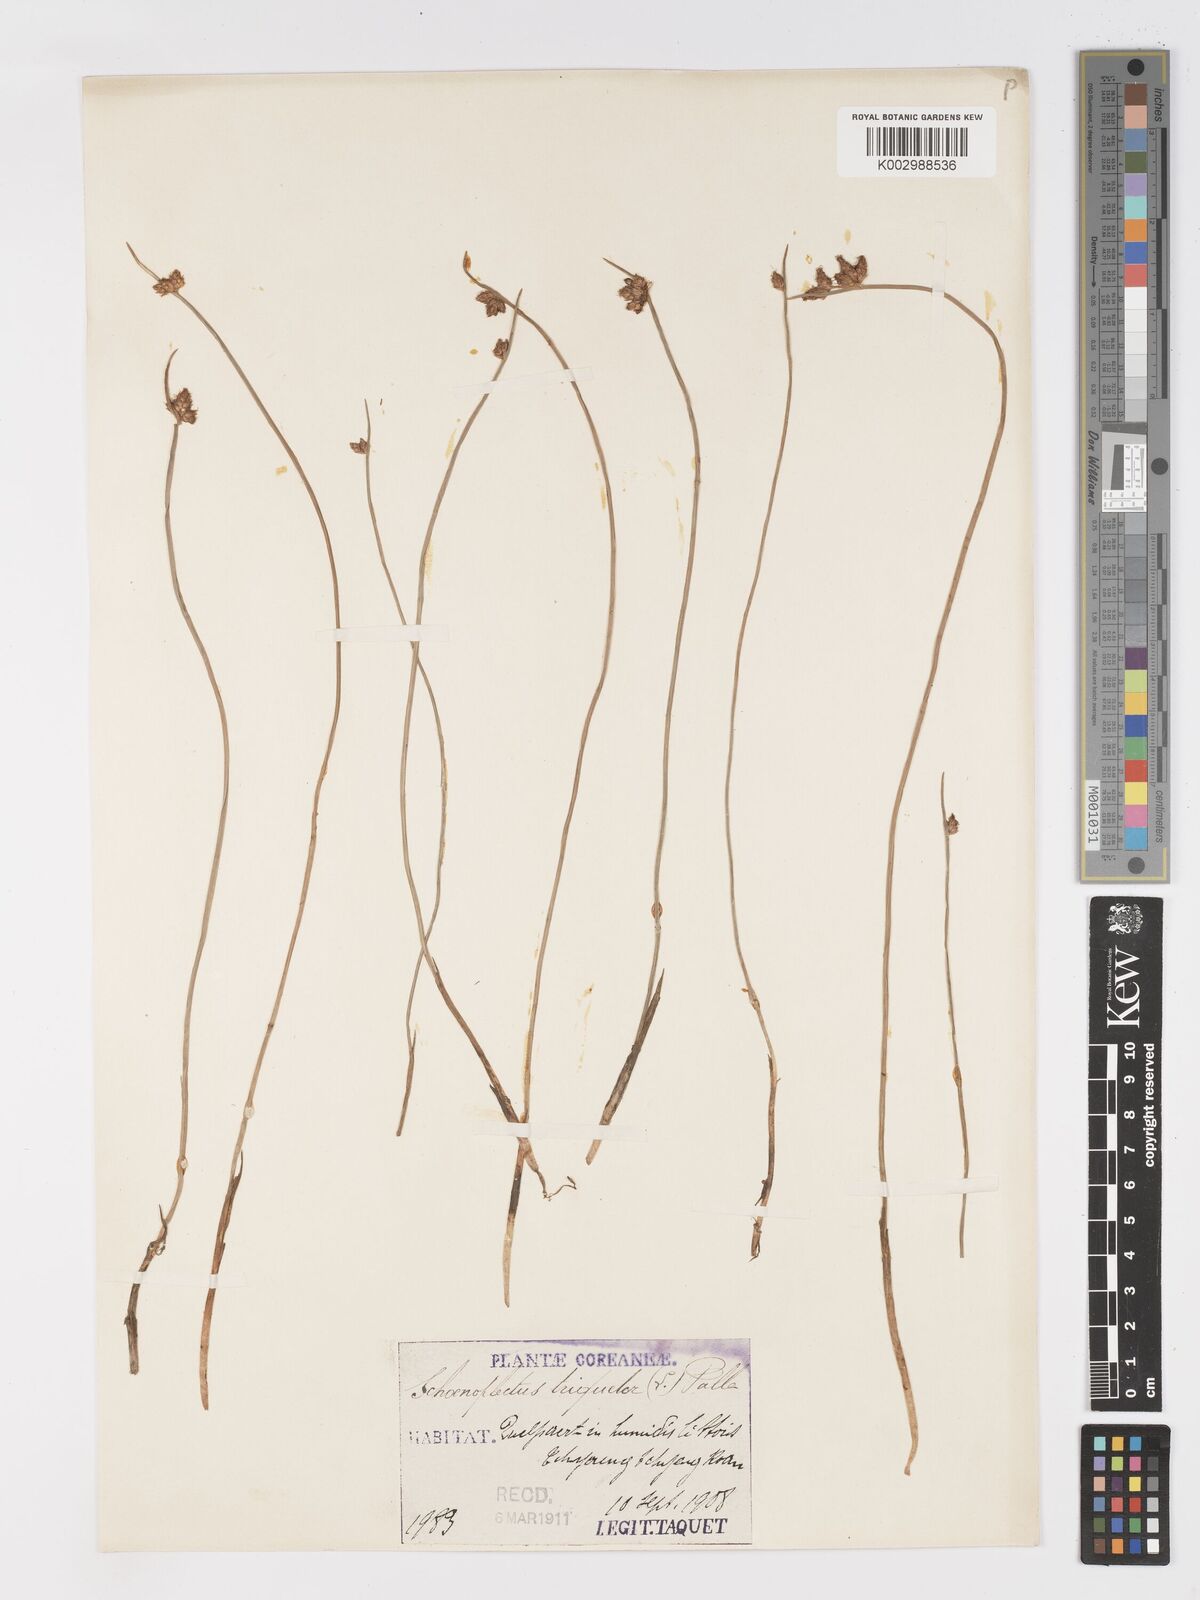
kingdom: Plantae
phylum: Tracheophyta
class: Liliopsida
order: Poales
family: Cyperaceae
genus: Schoenoplectus
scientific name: Schoenoplectus triqueter
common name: Triangular club-rush
